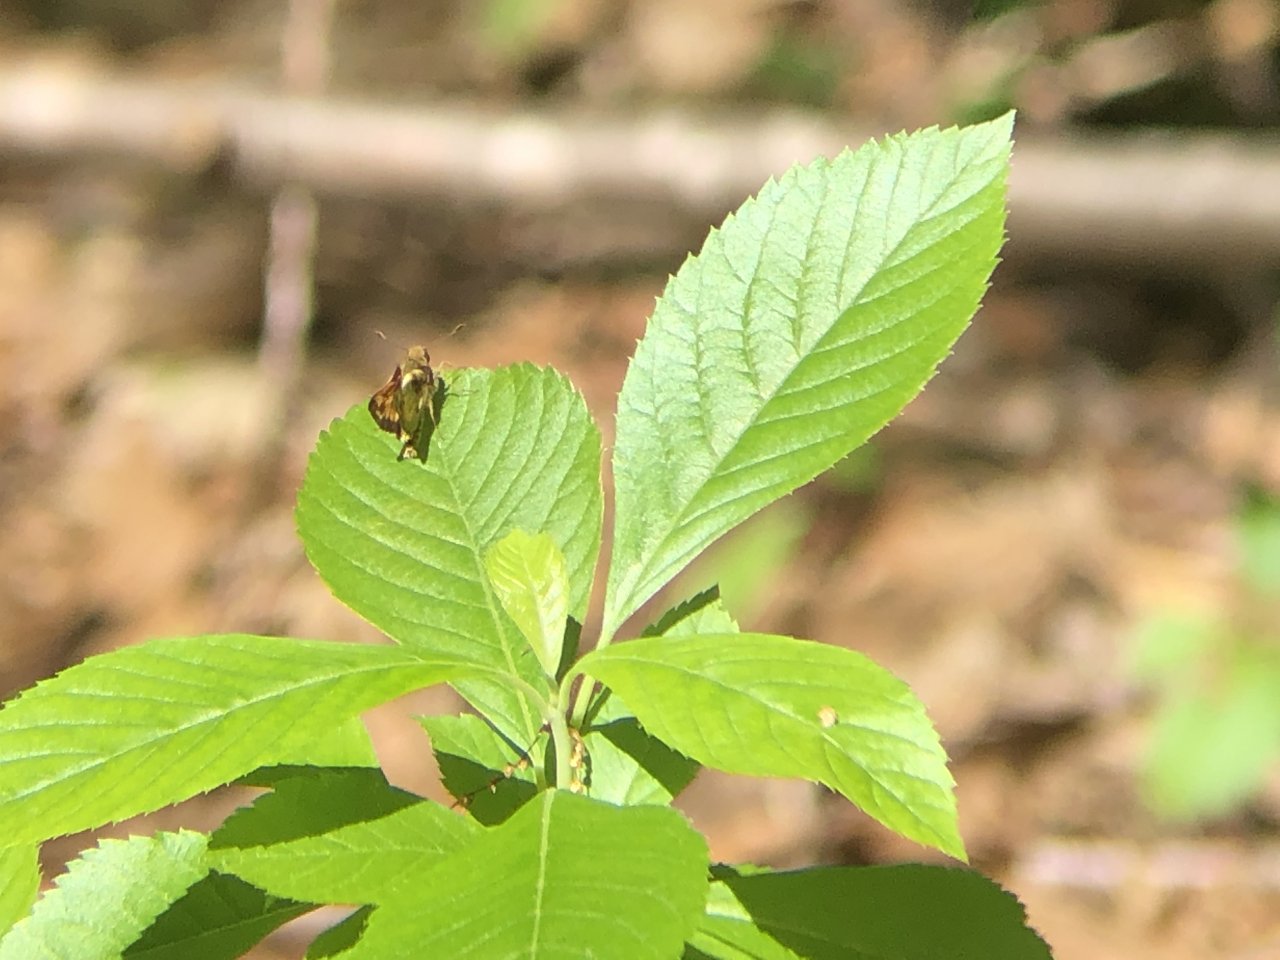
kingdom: Animalia
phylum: Arthropoda
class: Insecta
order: Lepidoptera
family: Hesperiidae
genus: Lon
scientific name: Lon zabulon
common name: Zabulon Skipper
